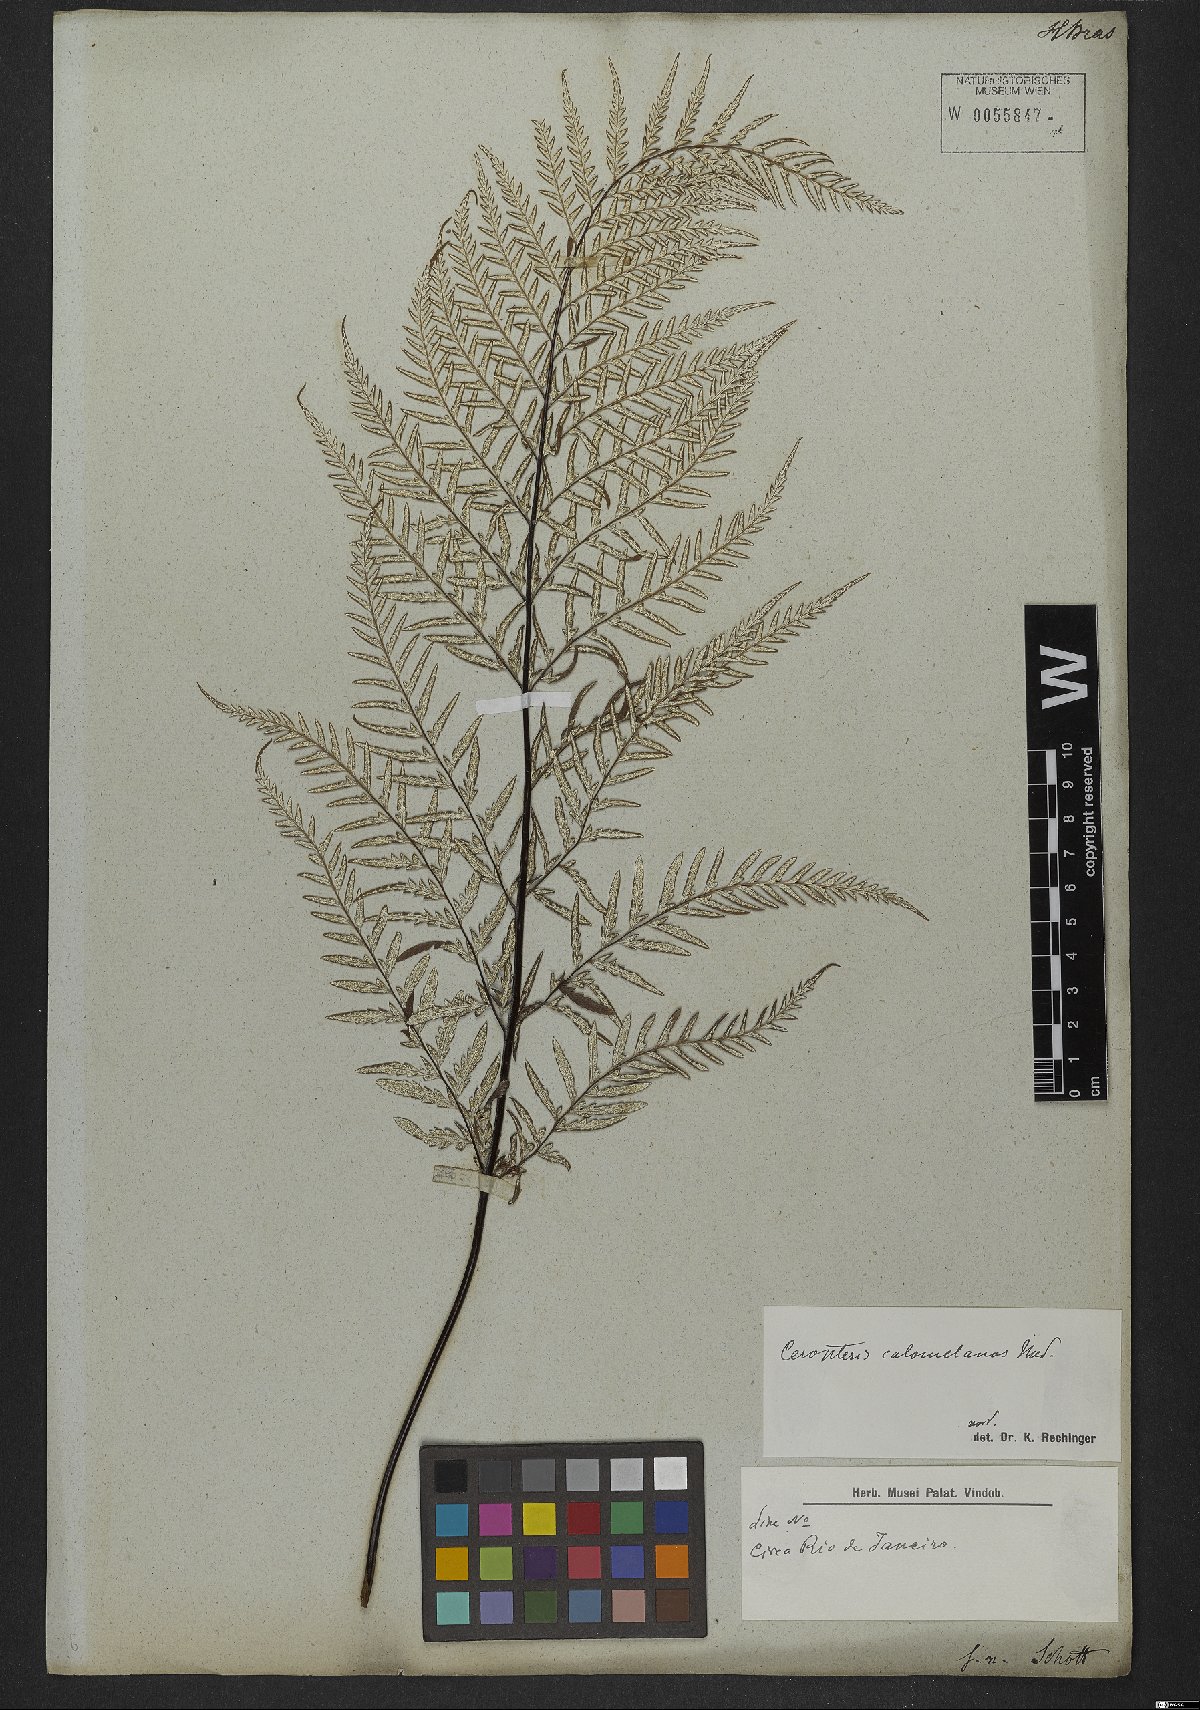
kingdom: Plantae
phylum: Tracheophyta
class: Polypodiopsida
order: Polypodiales
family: Pteridaceae
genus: Pityrogramma
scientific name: Pityrogramma calomelanos
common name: Dixie silverback fern
